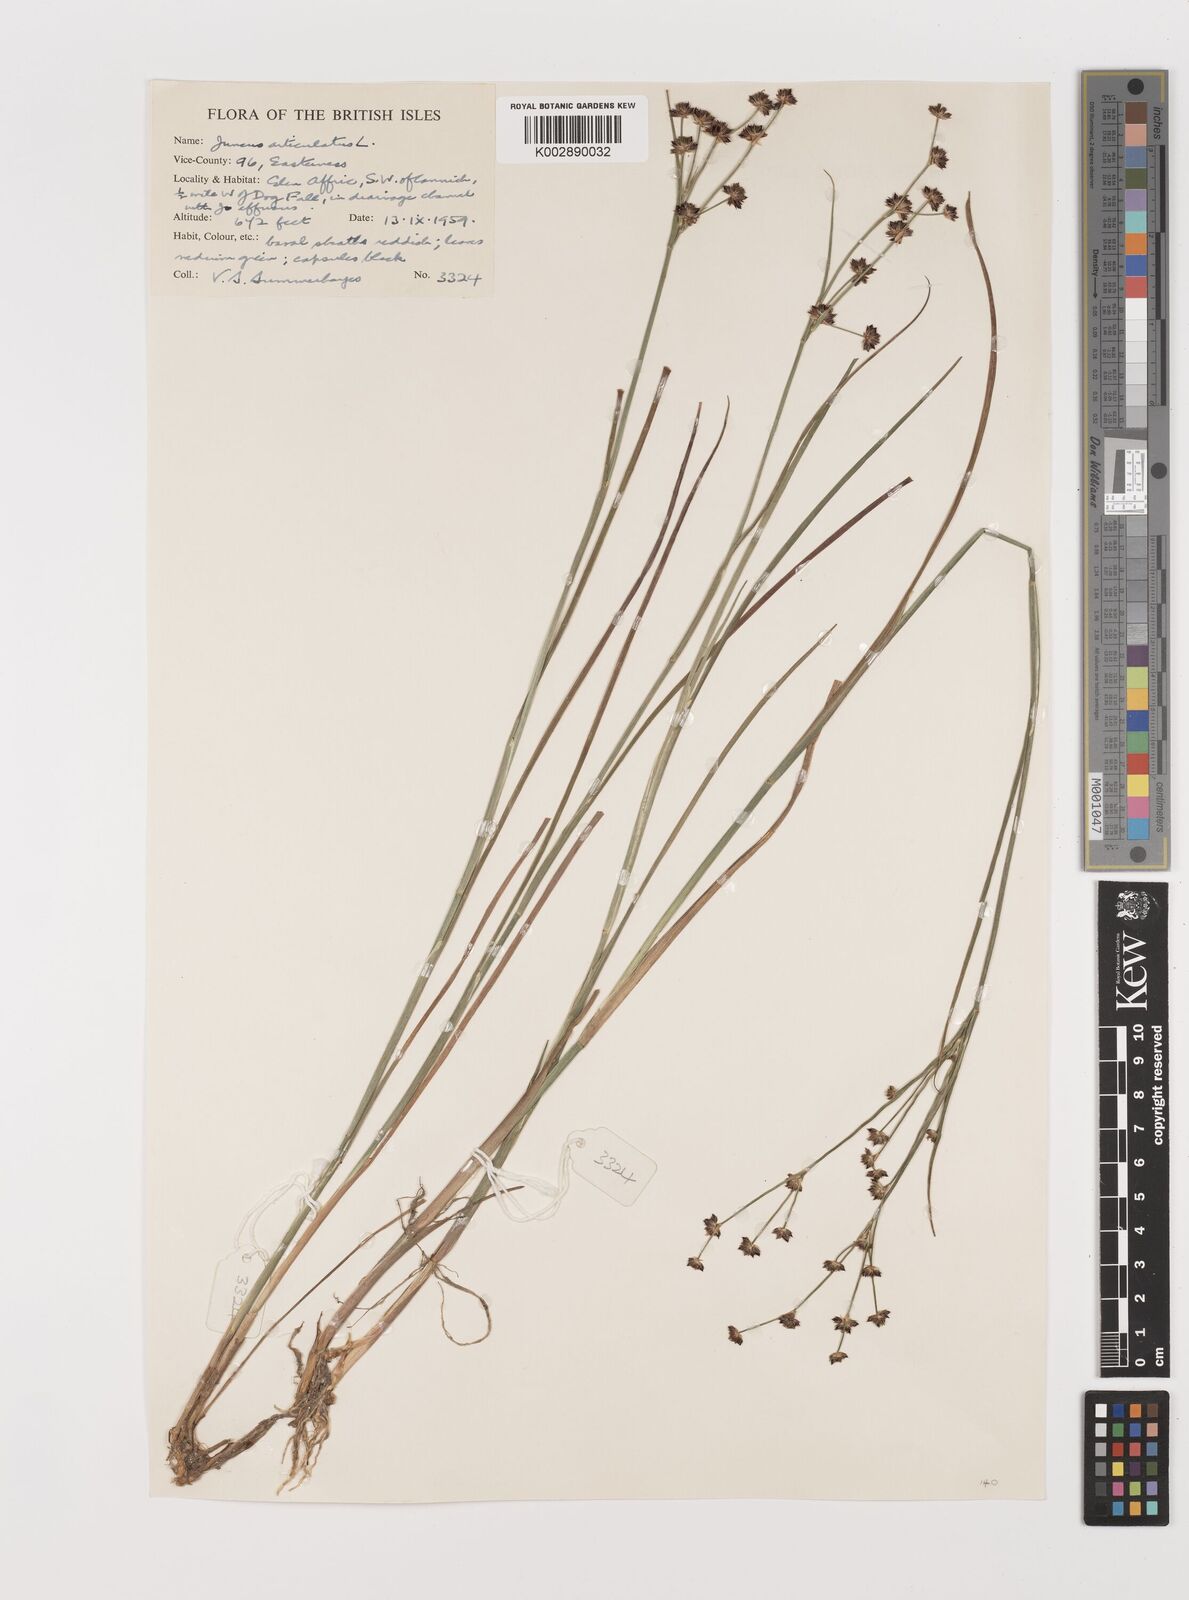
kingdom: Plantae
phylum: Tracheophyta
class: Liliopsida
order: Poales
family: Juncaceae
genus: Juncus
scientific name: Juncus articulatus
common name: Jointed rush
